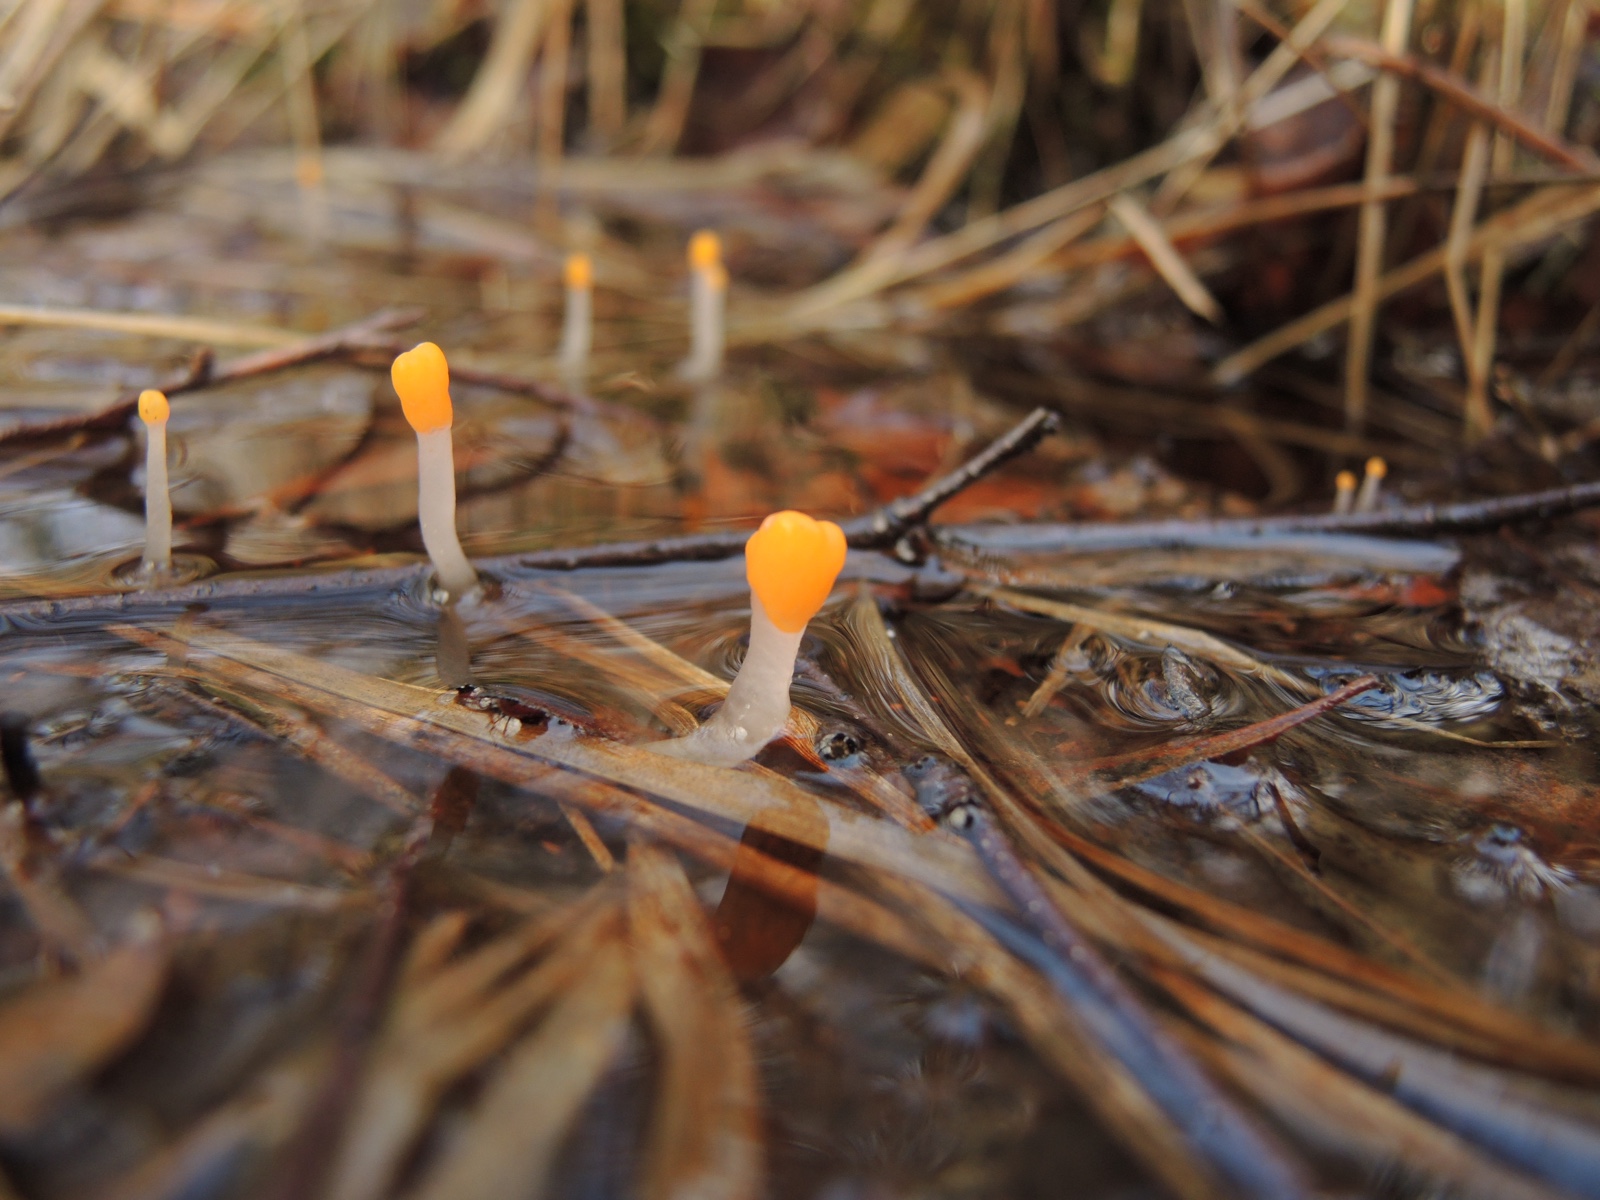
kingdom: Fungi
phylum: Ascomycota
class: Leotiomycetes
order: Helotiales
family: Cenangiaceae
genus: Mitrula
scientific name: Mitrula paludosa
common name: gul nøkketunge
